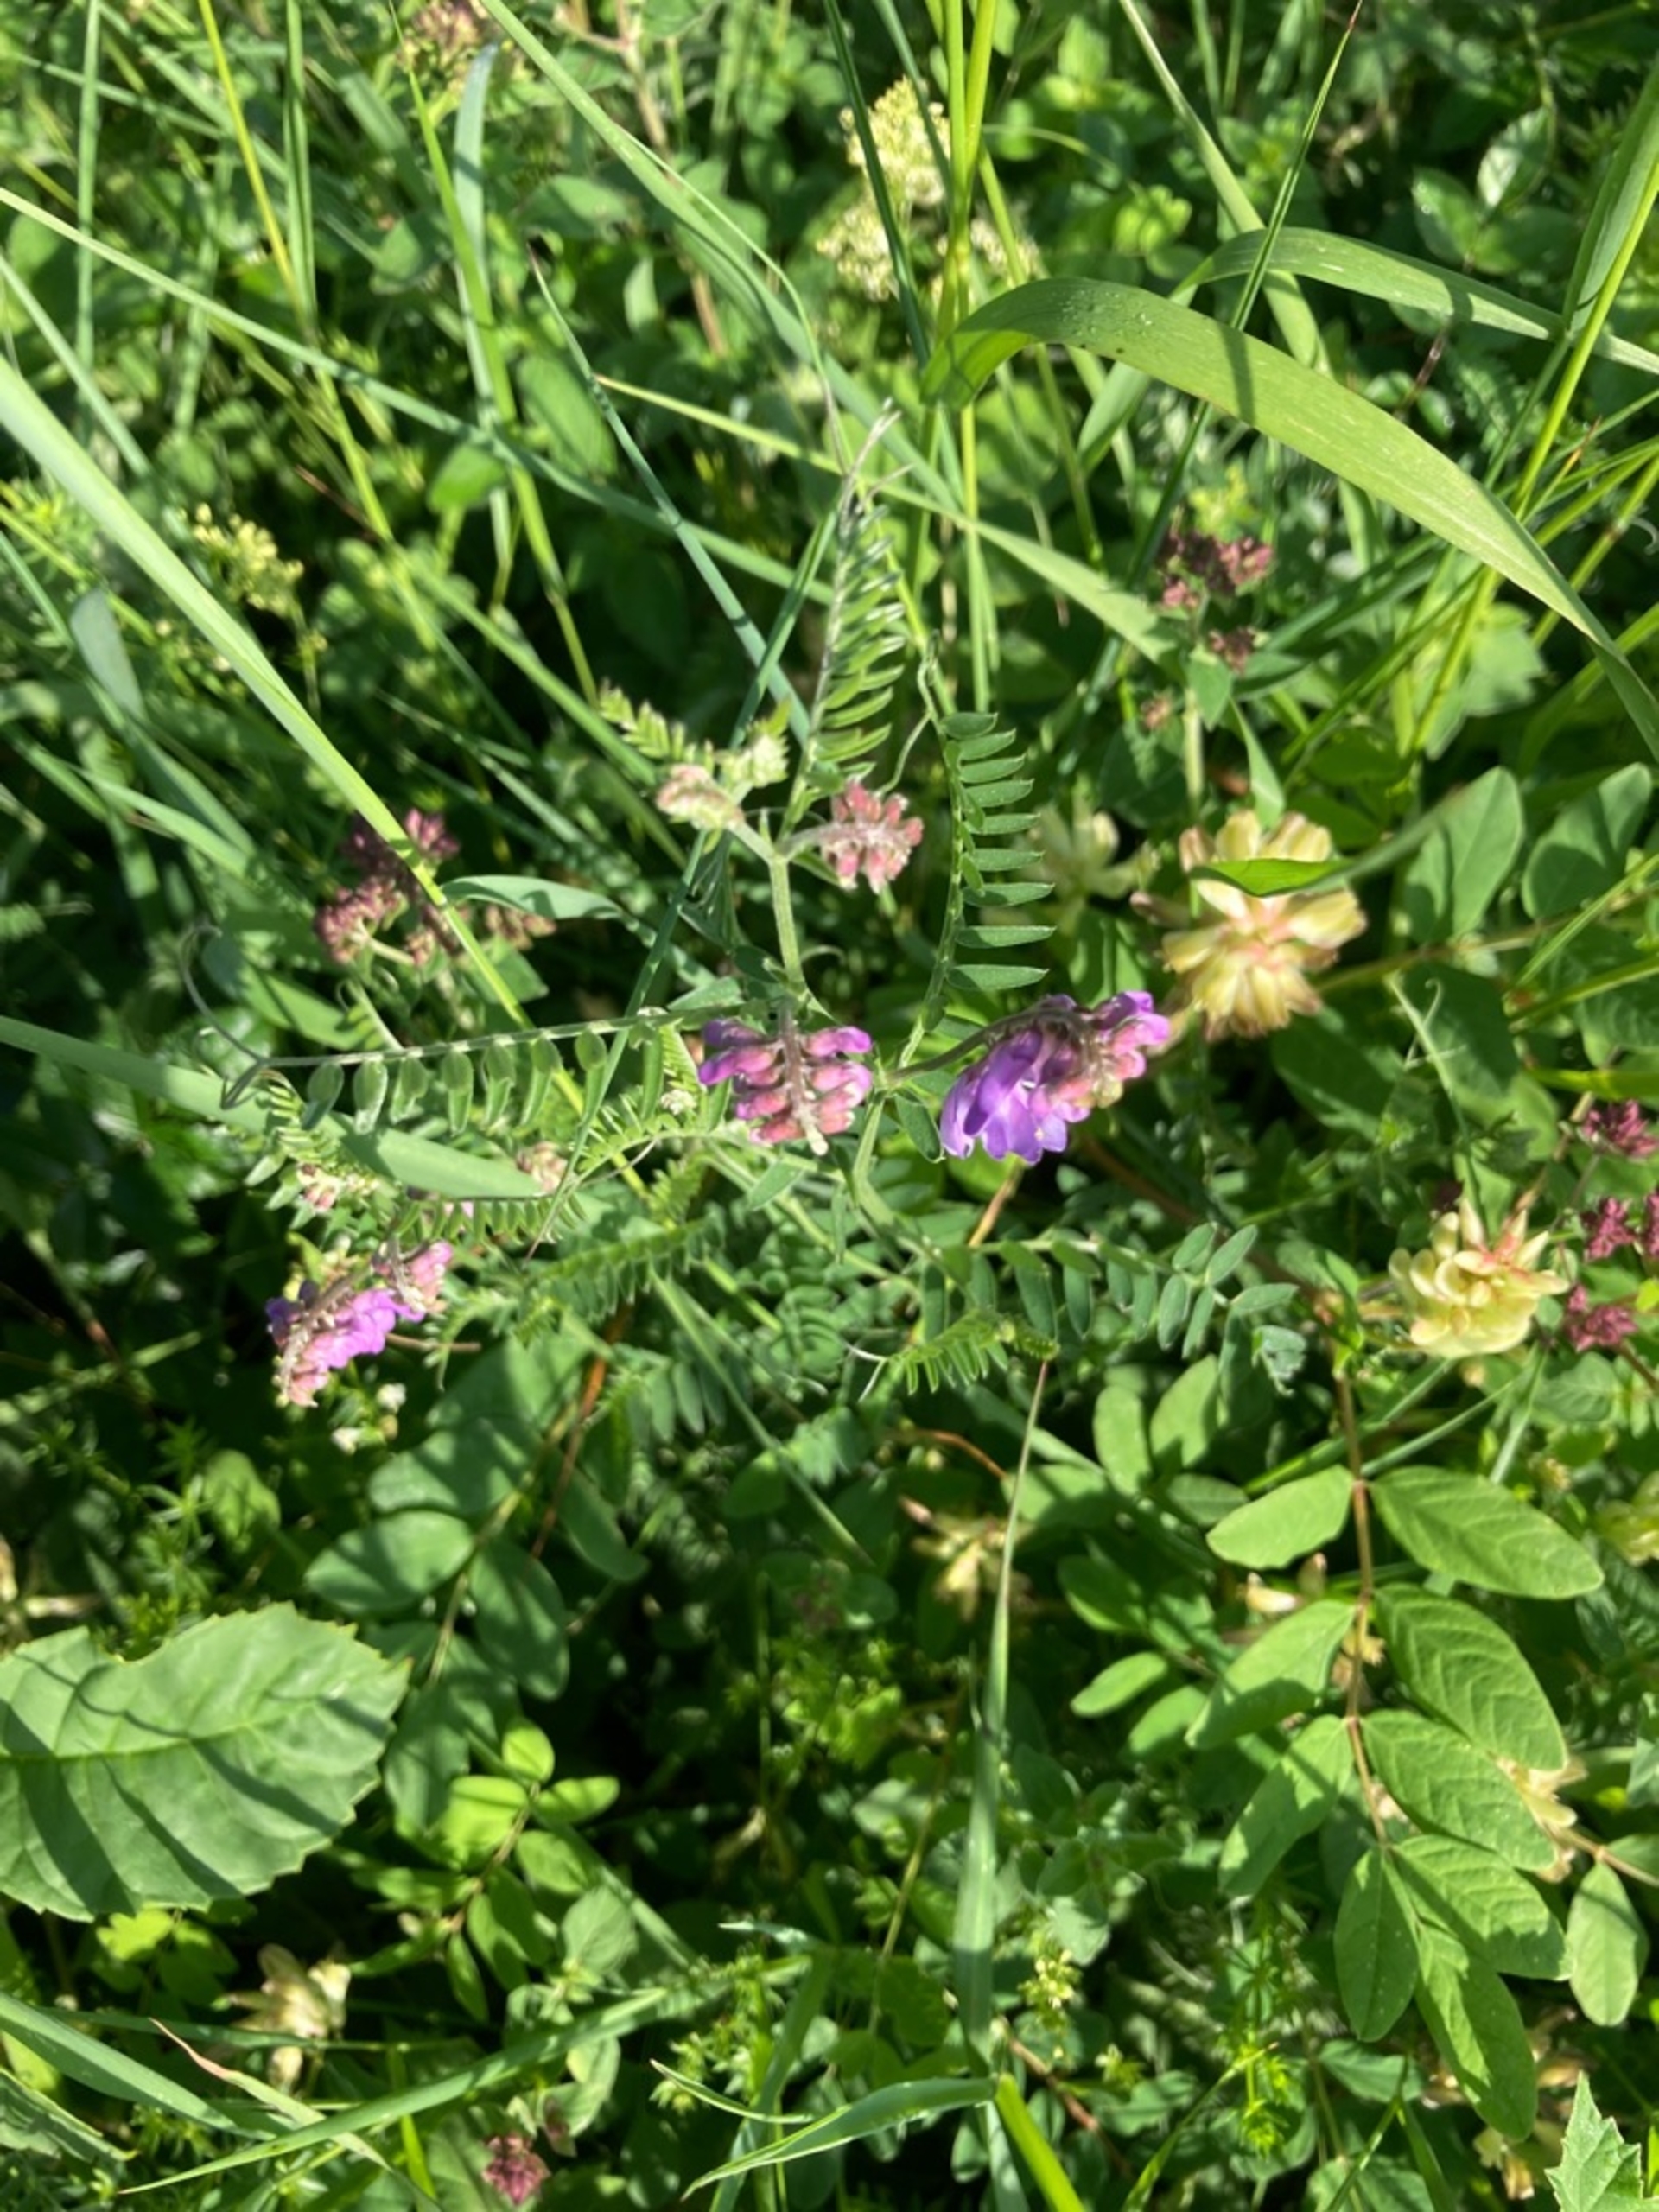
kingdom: Plantae
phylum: Tracheophyta
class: Magnoliopsida
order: Fabales
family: Fabaceae
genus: Vicia
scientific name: Vicia cracca
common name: Muse-vikke
